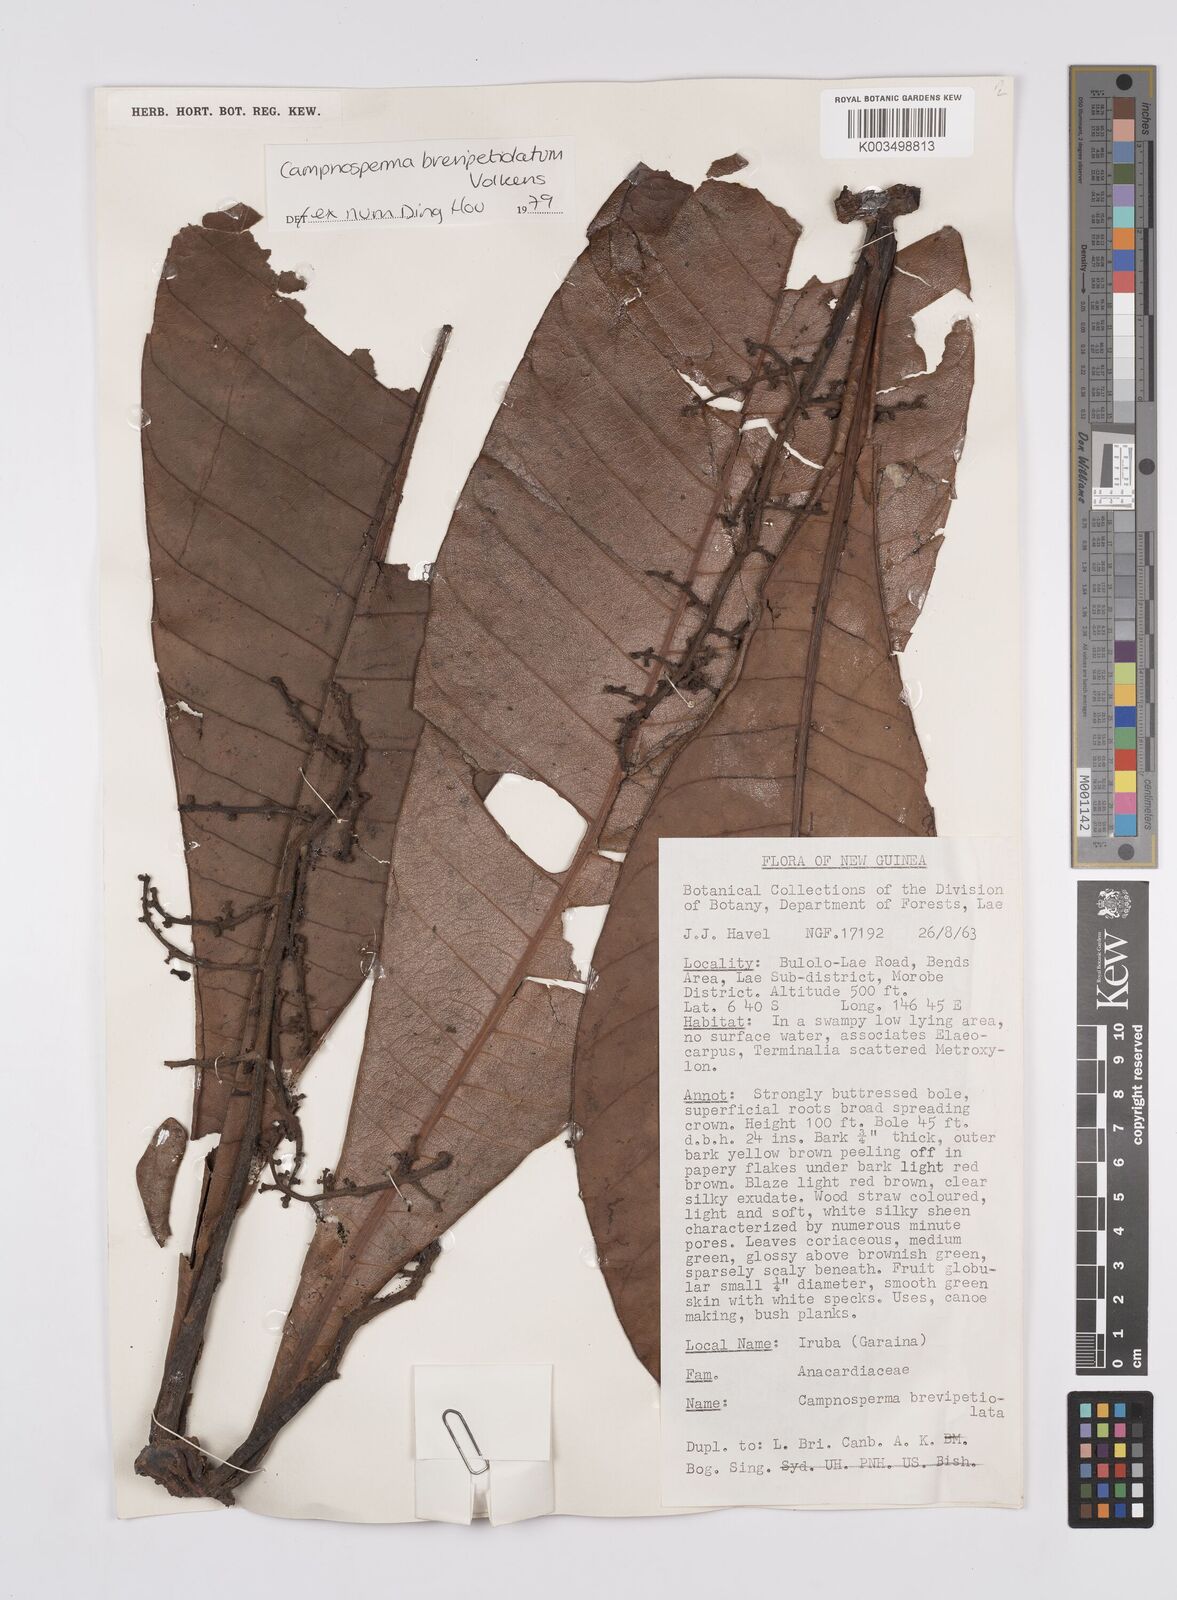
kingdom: Plantae
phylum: Tracheophyta
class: Magnoliopsida
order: Sapindales
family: Anacardiaceae
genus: Campnosperma
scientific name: Campnosperma brevipetiolatum
